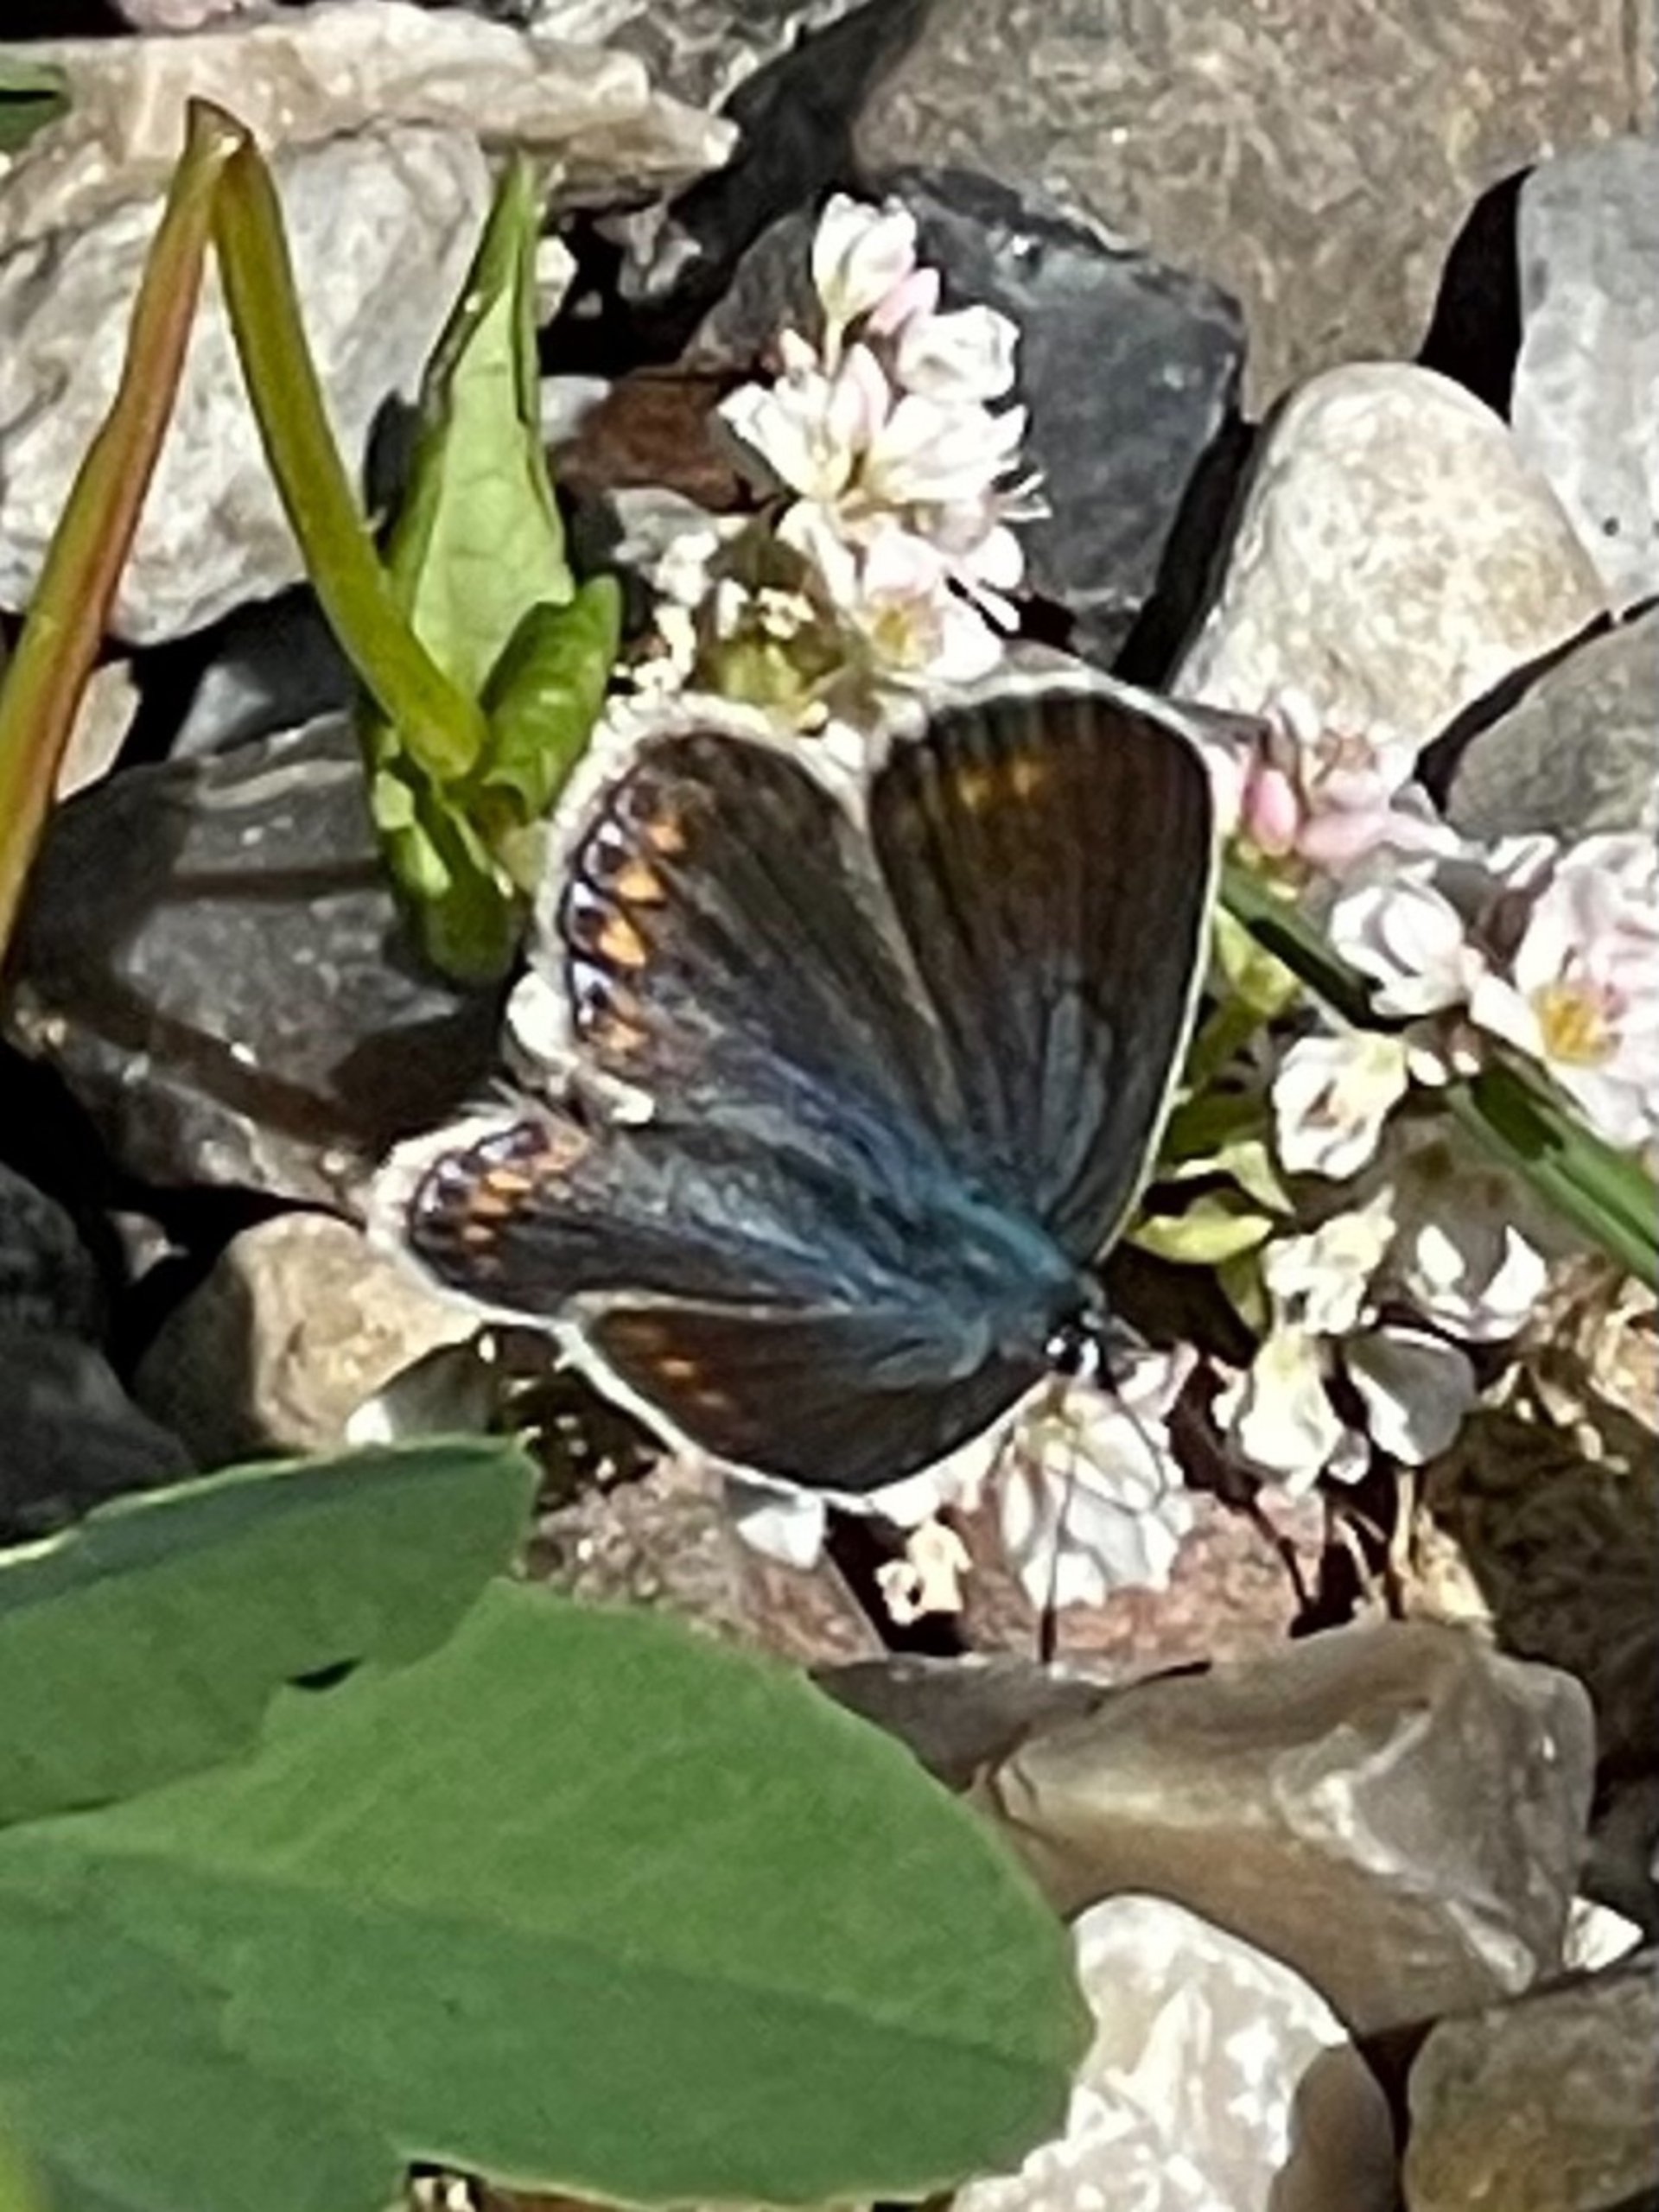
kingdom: Animalia
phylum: Arthropoda
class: Insecta
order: Lepidoptera
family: Lycaenidae
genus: Polyommatus
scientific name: Polyommatus icarus
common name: Almindelig blåfugl
